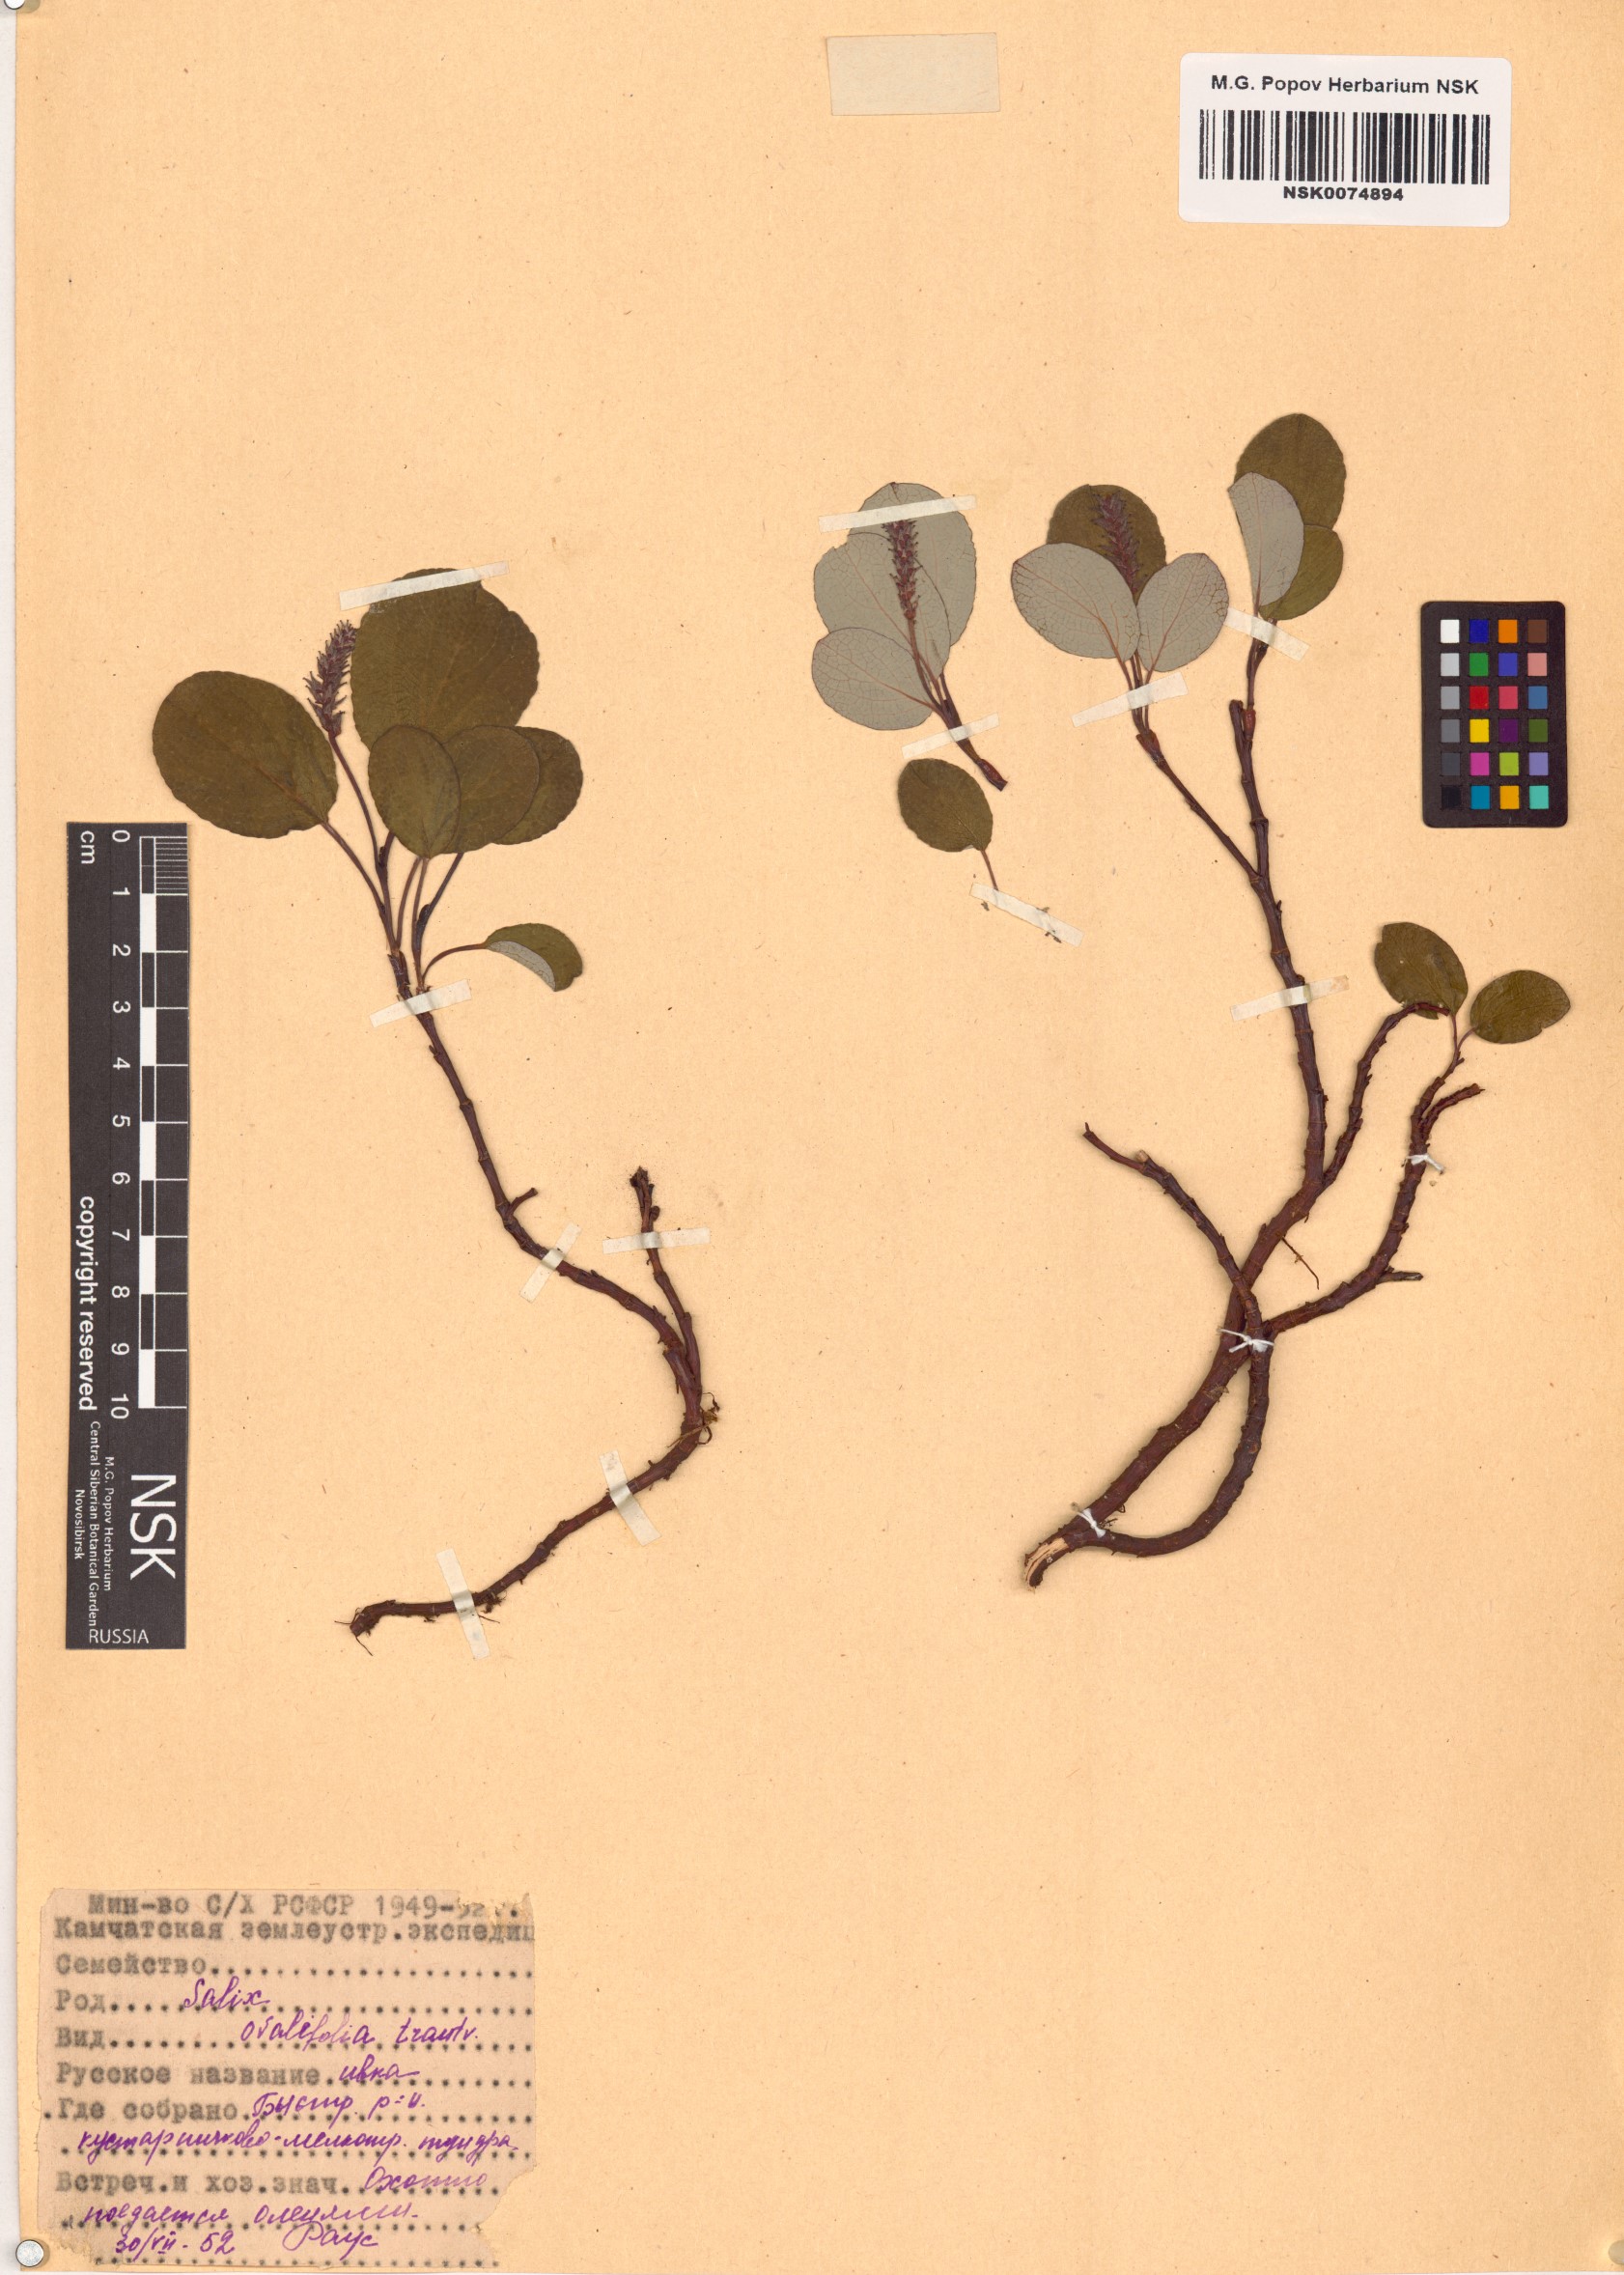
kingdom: Plantae
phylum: Tracheophyta
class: Magnoliopsida
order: Malpighiales
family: Salicaceae
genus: Salix
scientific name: Salix ovalifolia
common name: Arctic seashore willow
